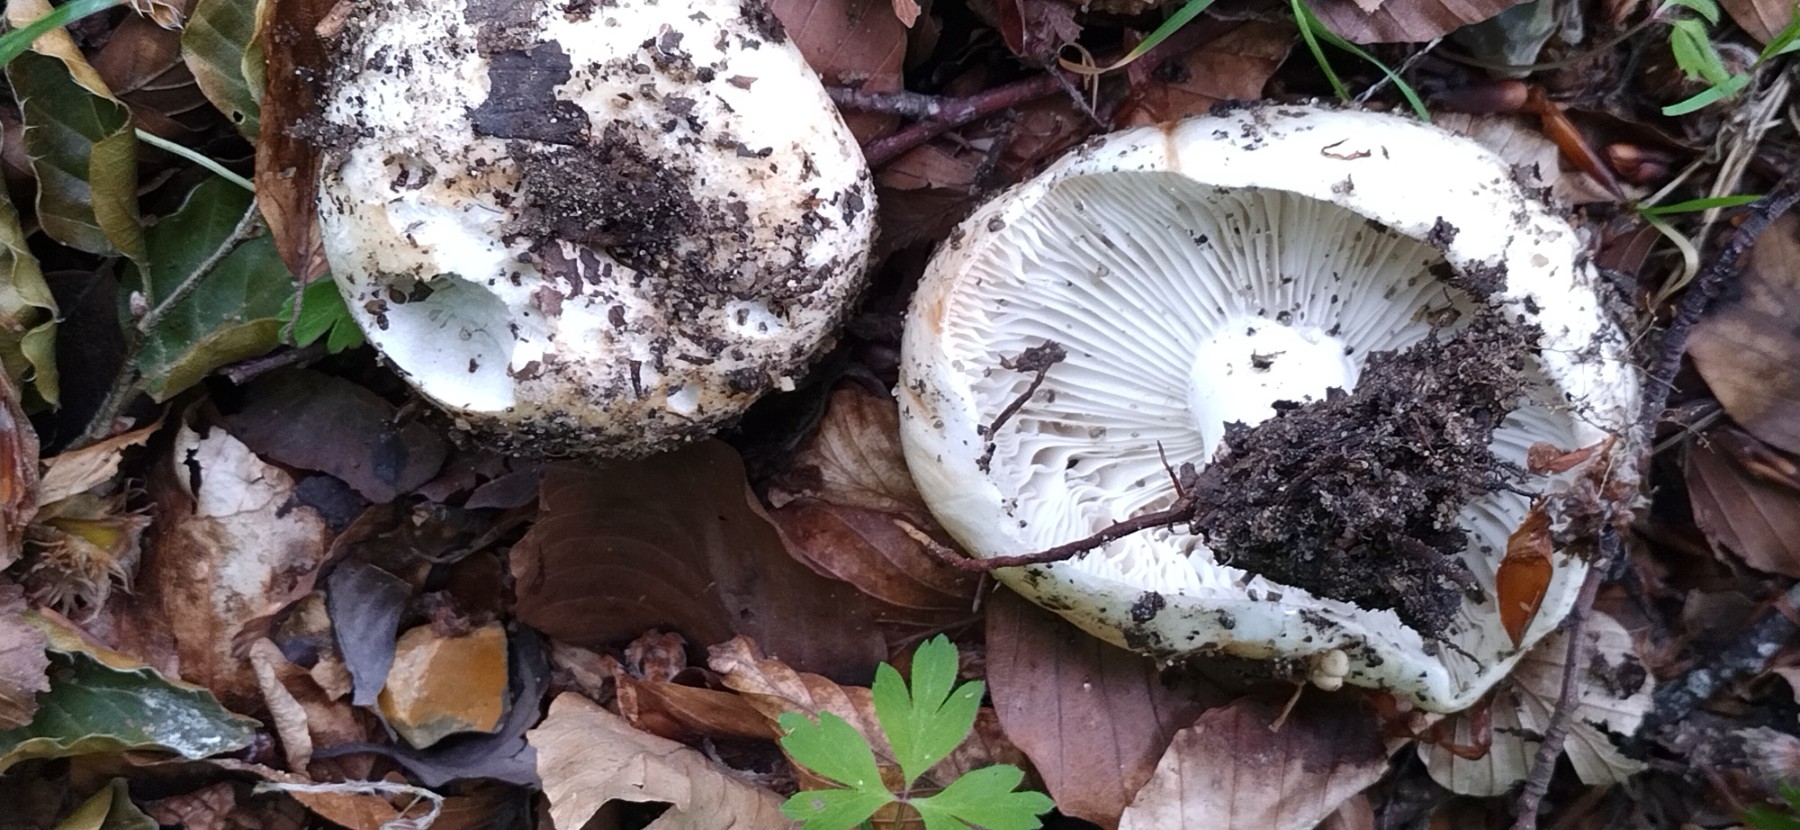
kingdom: Fungi
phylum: Basidiomycota
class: Agaricomycetes
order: Russulales
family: Russulaceae
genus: Russula
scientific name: Russula delica
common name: almindelig tragt-skørhat
